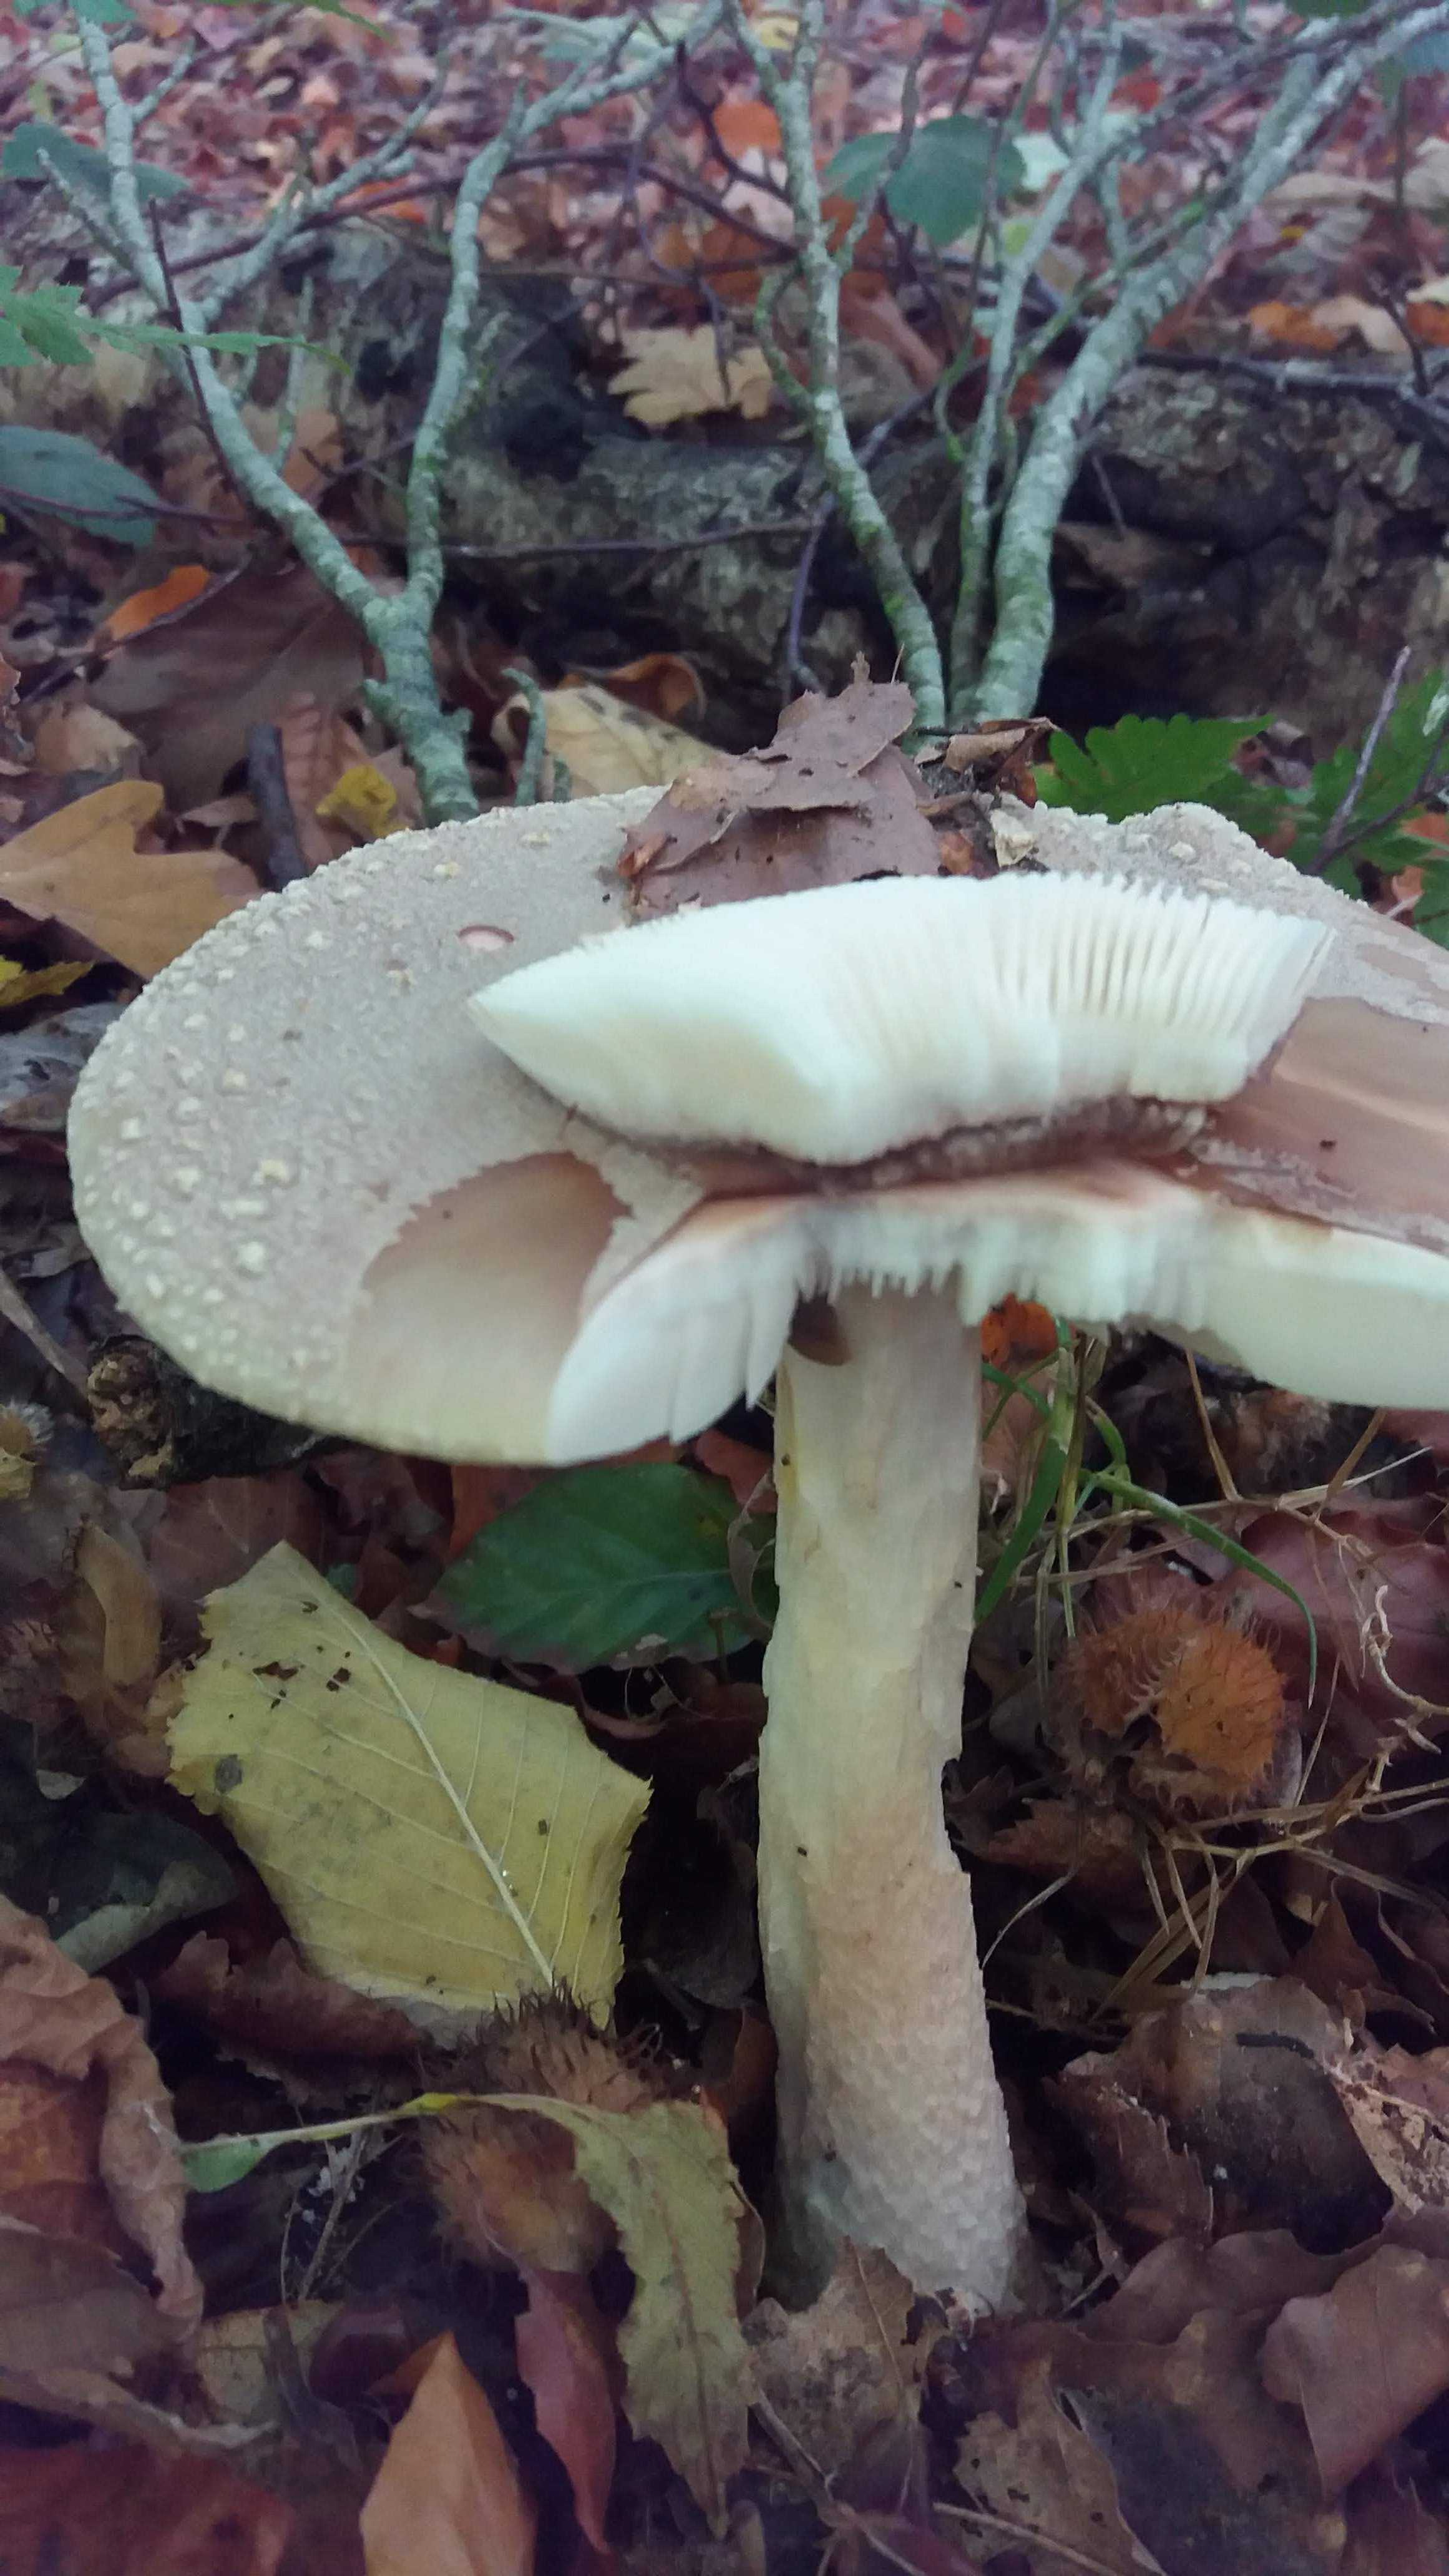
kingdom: Fungi
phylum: Basidiomycota
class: Agaricomycetes
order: Agaricales
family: Amanitaceae
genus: Amanita
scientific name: Amanita rubescens
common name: rødmende fluesvamp
